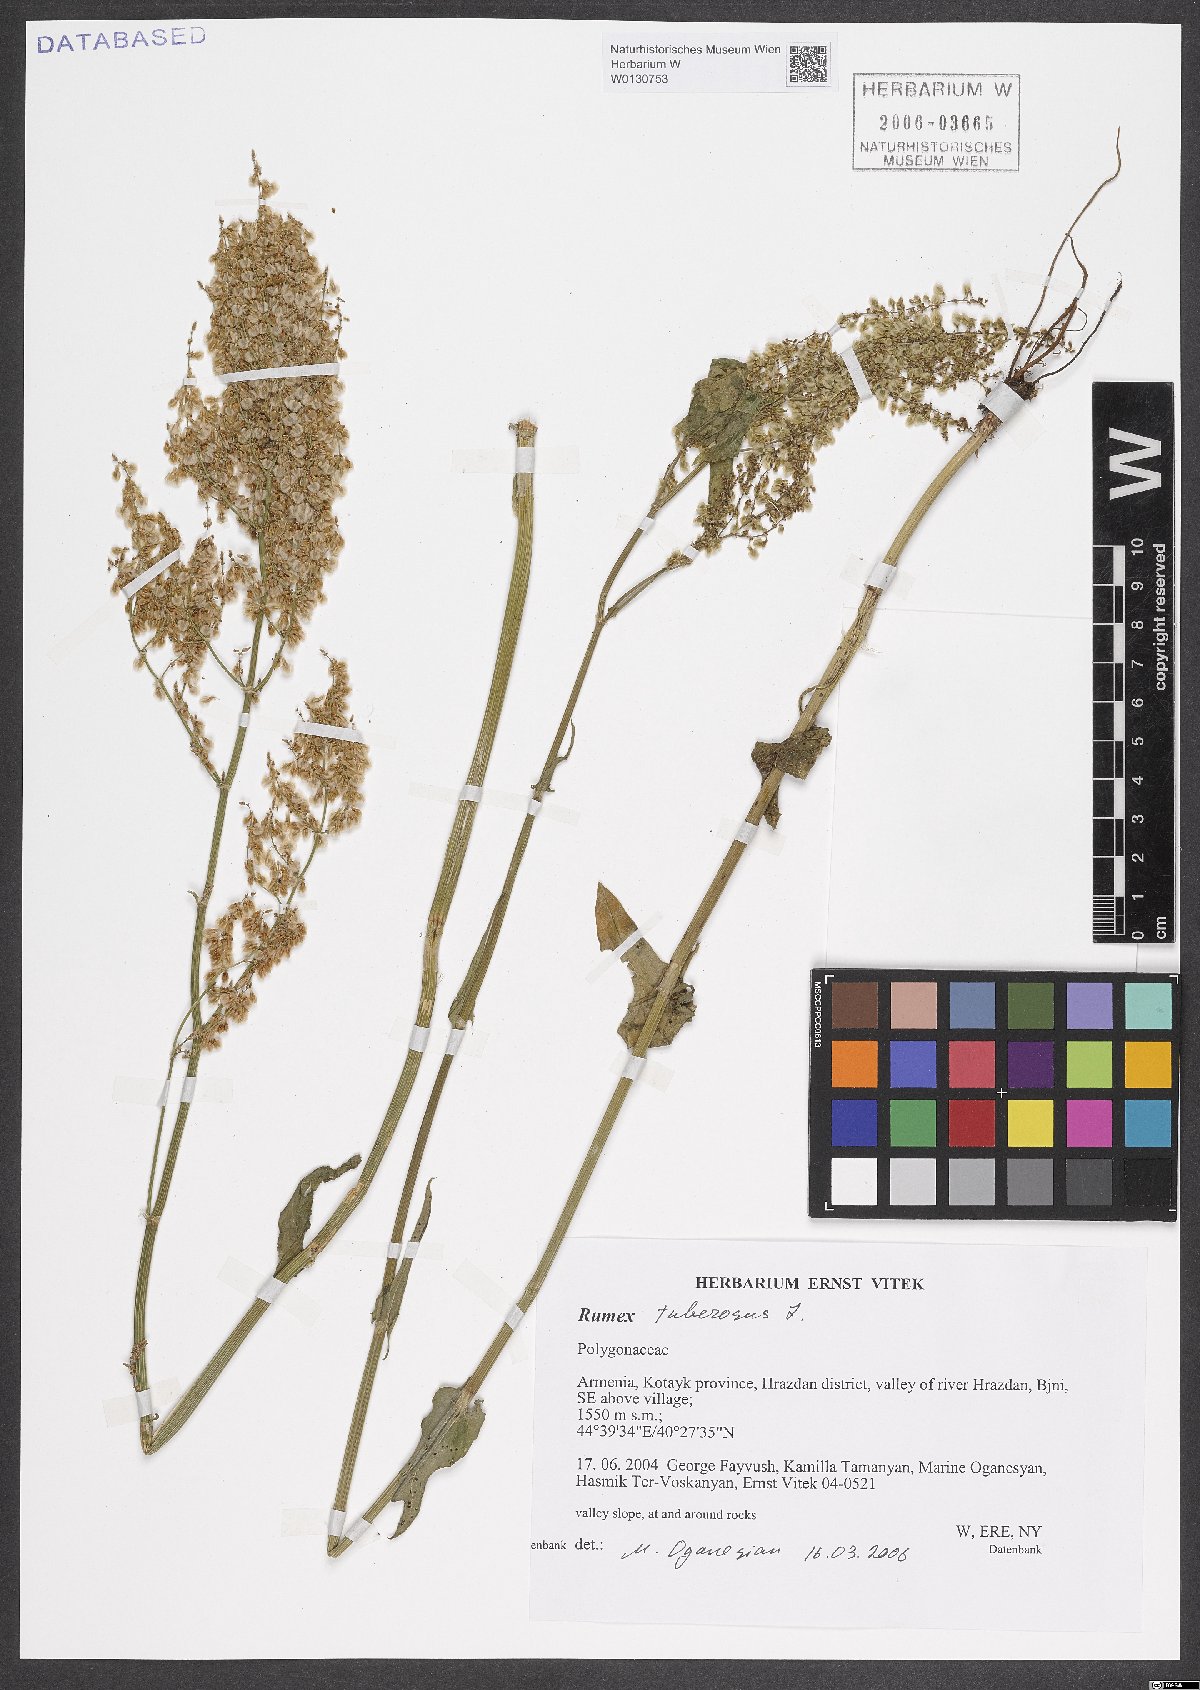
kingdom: Plantae
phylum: Tracheophyta
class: Magnoliopsida
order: Caryophyllales
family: Polygonaceae
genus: Rumex
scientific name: Rumex tuberosus
